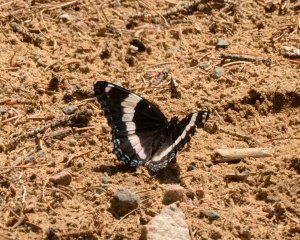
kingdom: Animalia
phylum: Arthropoda
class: Insecta
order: Lepidoptera
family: Nymphalidae
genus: Limenitis
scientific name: Limenitis arthemis
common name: Red-spotted Admiral
